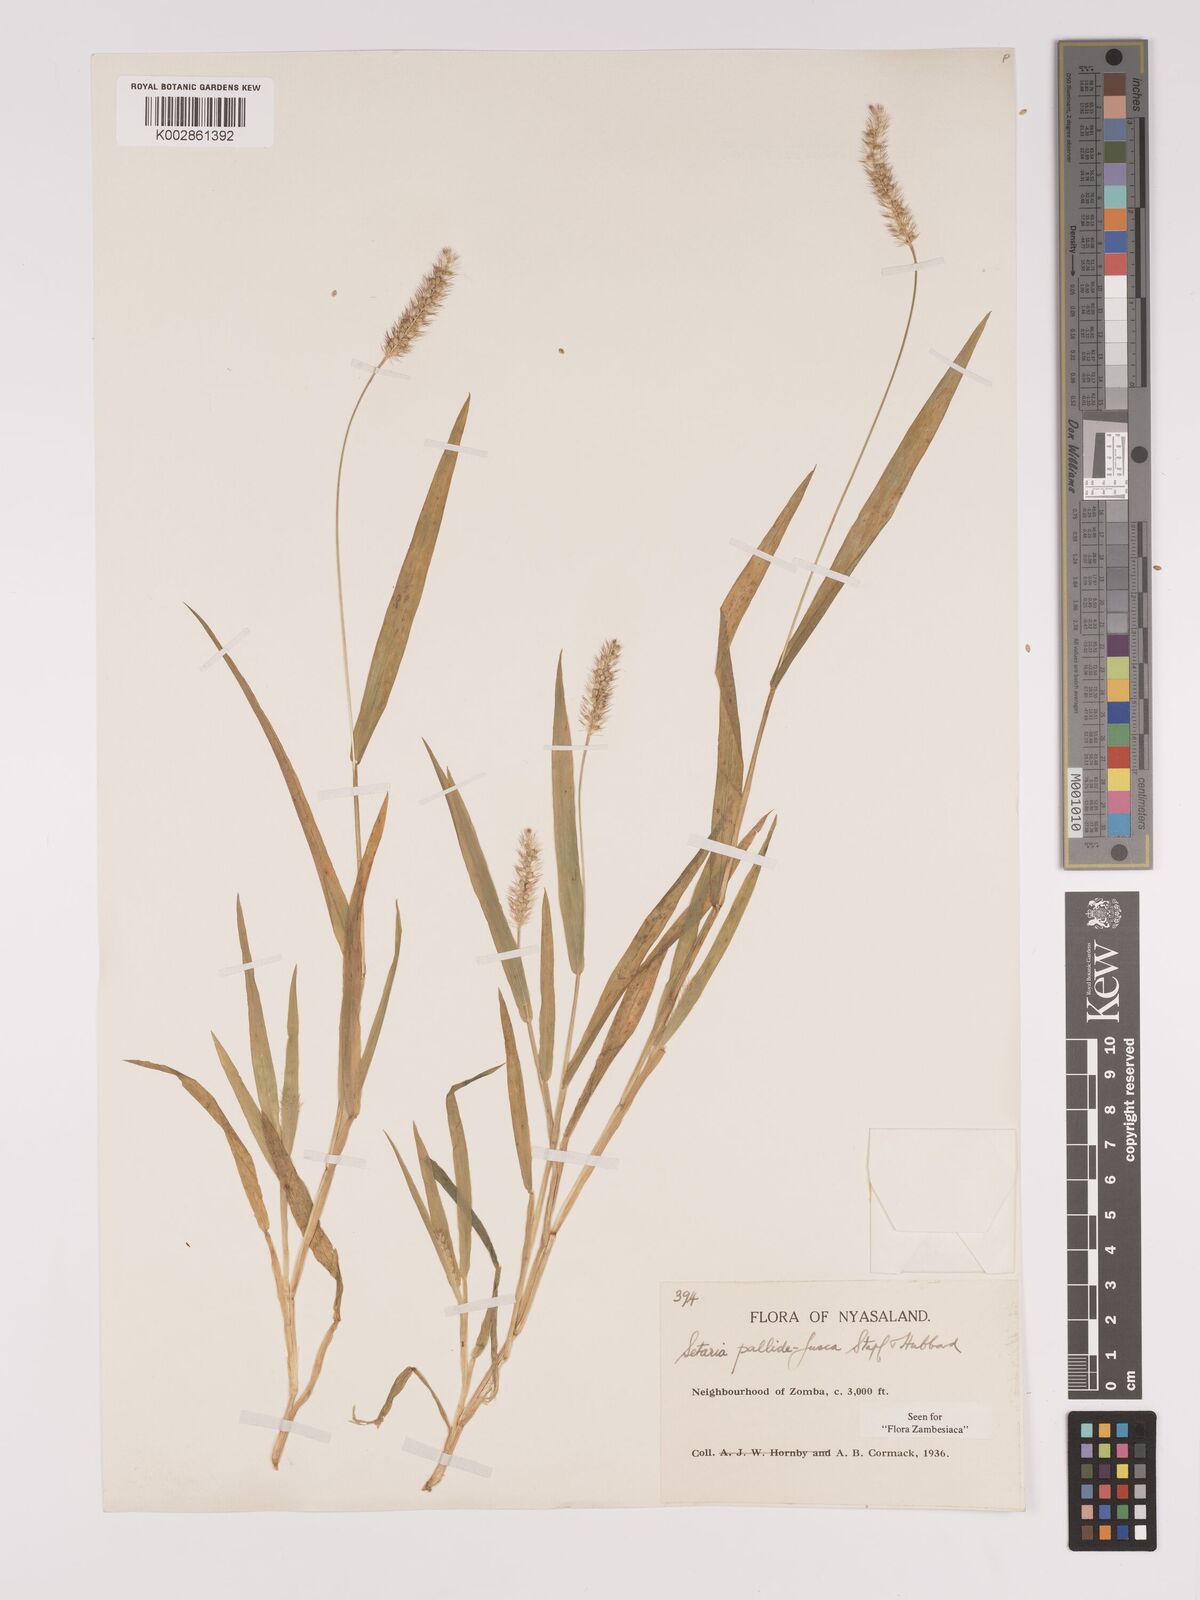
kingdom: Plantae
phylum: Tracheophyta
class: Liliopsida
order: Poales
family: Poaceae
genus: Setaria
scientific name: Setaria pumila
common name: Yellow bristle-grass
